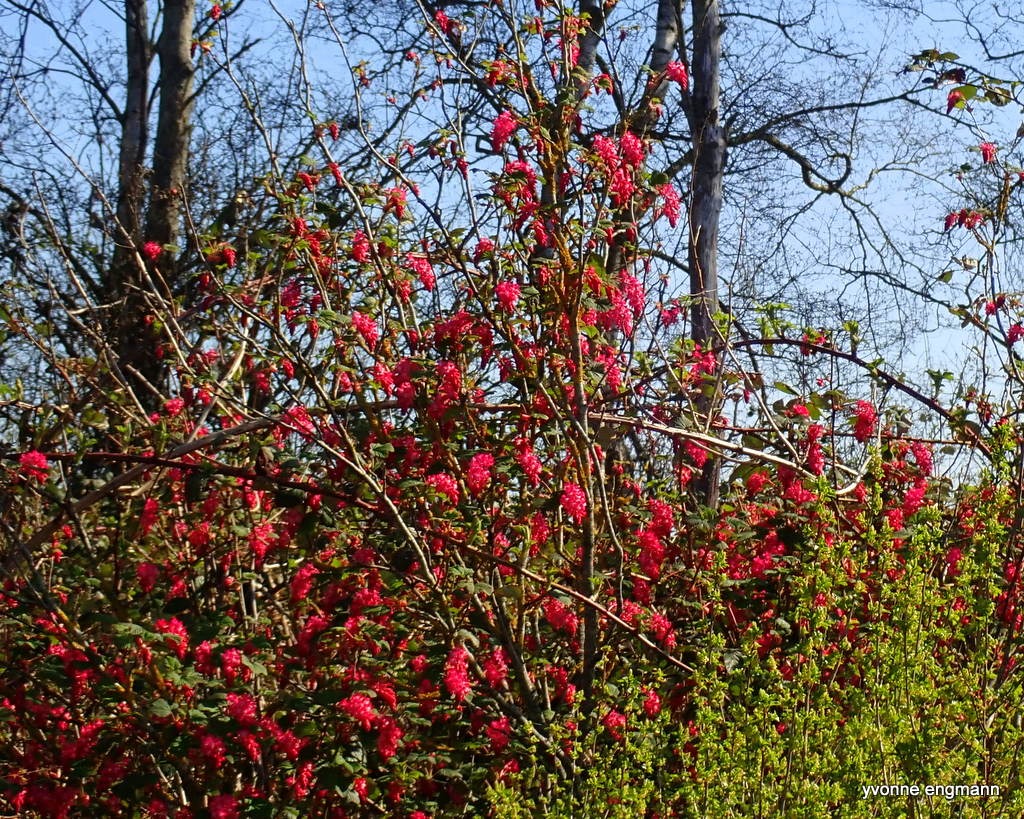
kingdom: Plantae
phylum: Tracheophyta
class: Magnoliopsida
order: Saxifragales
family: Grossulariaceae
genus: Ribes
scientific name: Ribes sanguineum
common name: Blod-ribs
